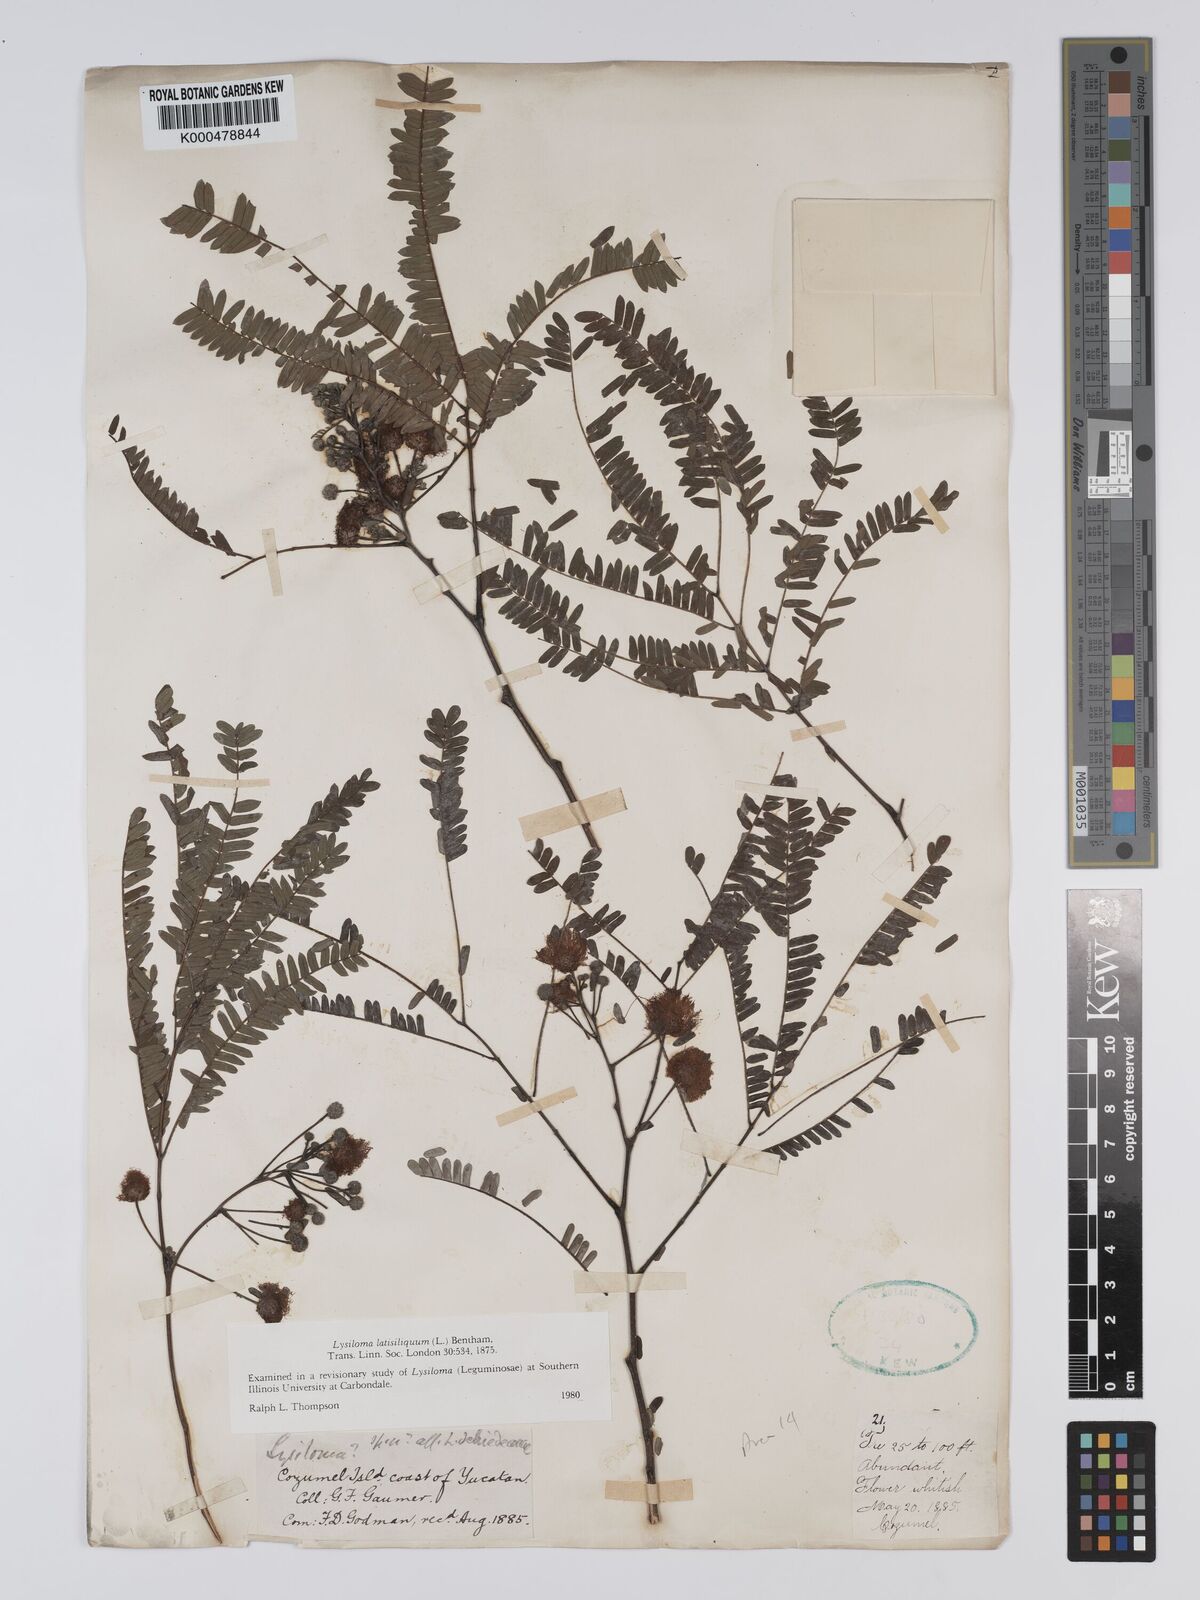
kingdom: Plantae
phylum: Tracheophyta
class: Magnoliopsida
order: Fabales
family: Fabaceae
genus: Lysiloma
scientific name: Lysiloma latisiliquum
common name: Wild tamarind
